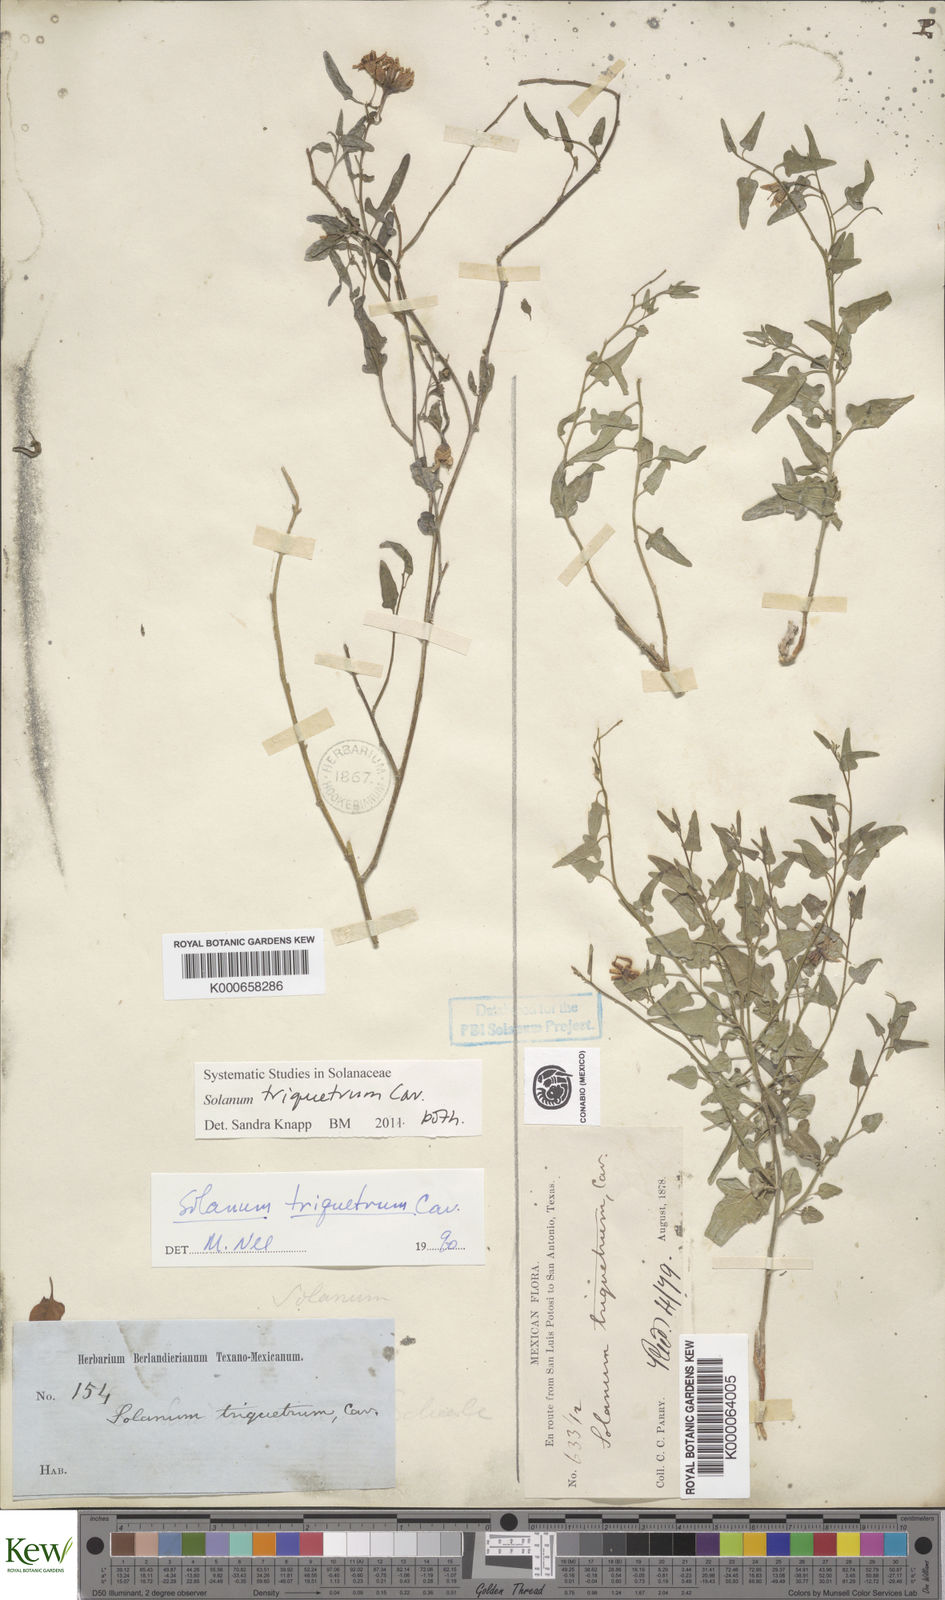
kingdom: Plantae
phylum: Tracheophyta
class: Magnoliopsida
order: Solanales
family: Solanaceae
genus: Solanum
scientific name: Solanum triquetrum
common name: Texas nightshade
